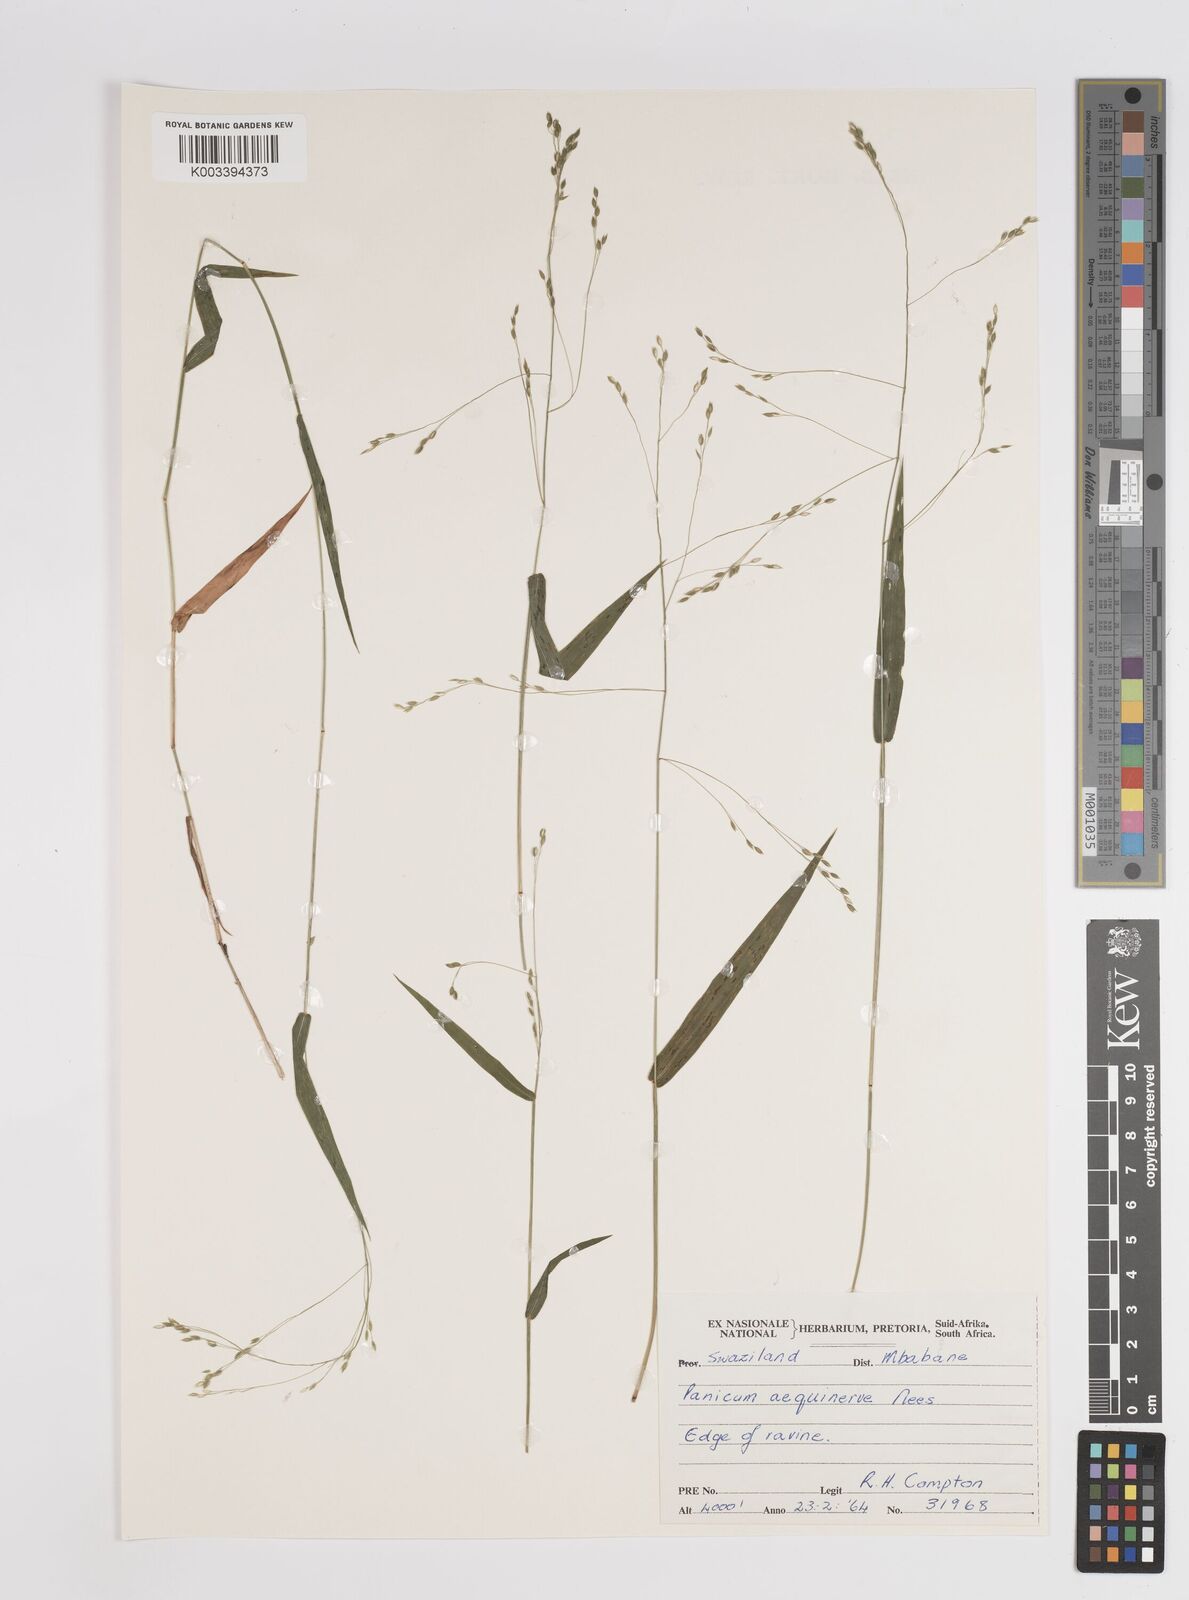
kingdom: Plantae
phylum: Tracheophyta
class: Liliopsida
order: Poales
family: Poaceae
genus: Panicum
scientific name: Panicum aequinerve
